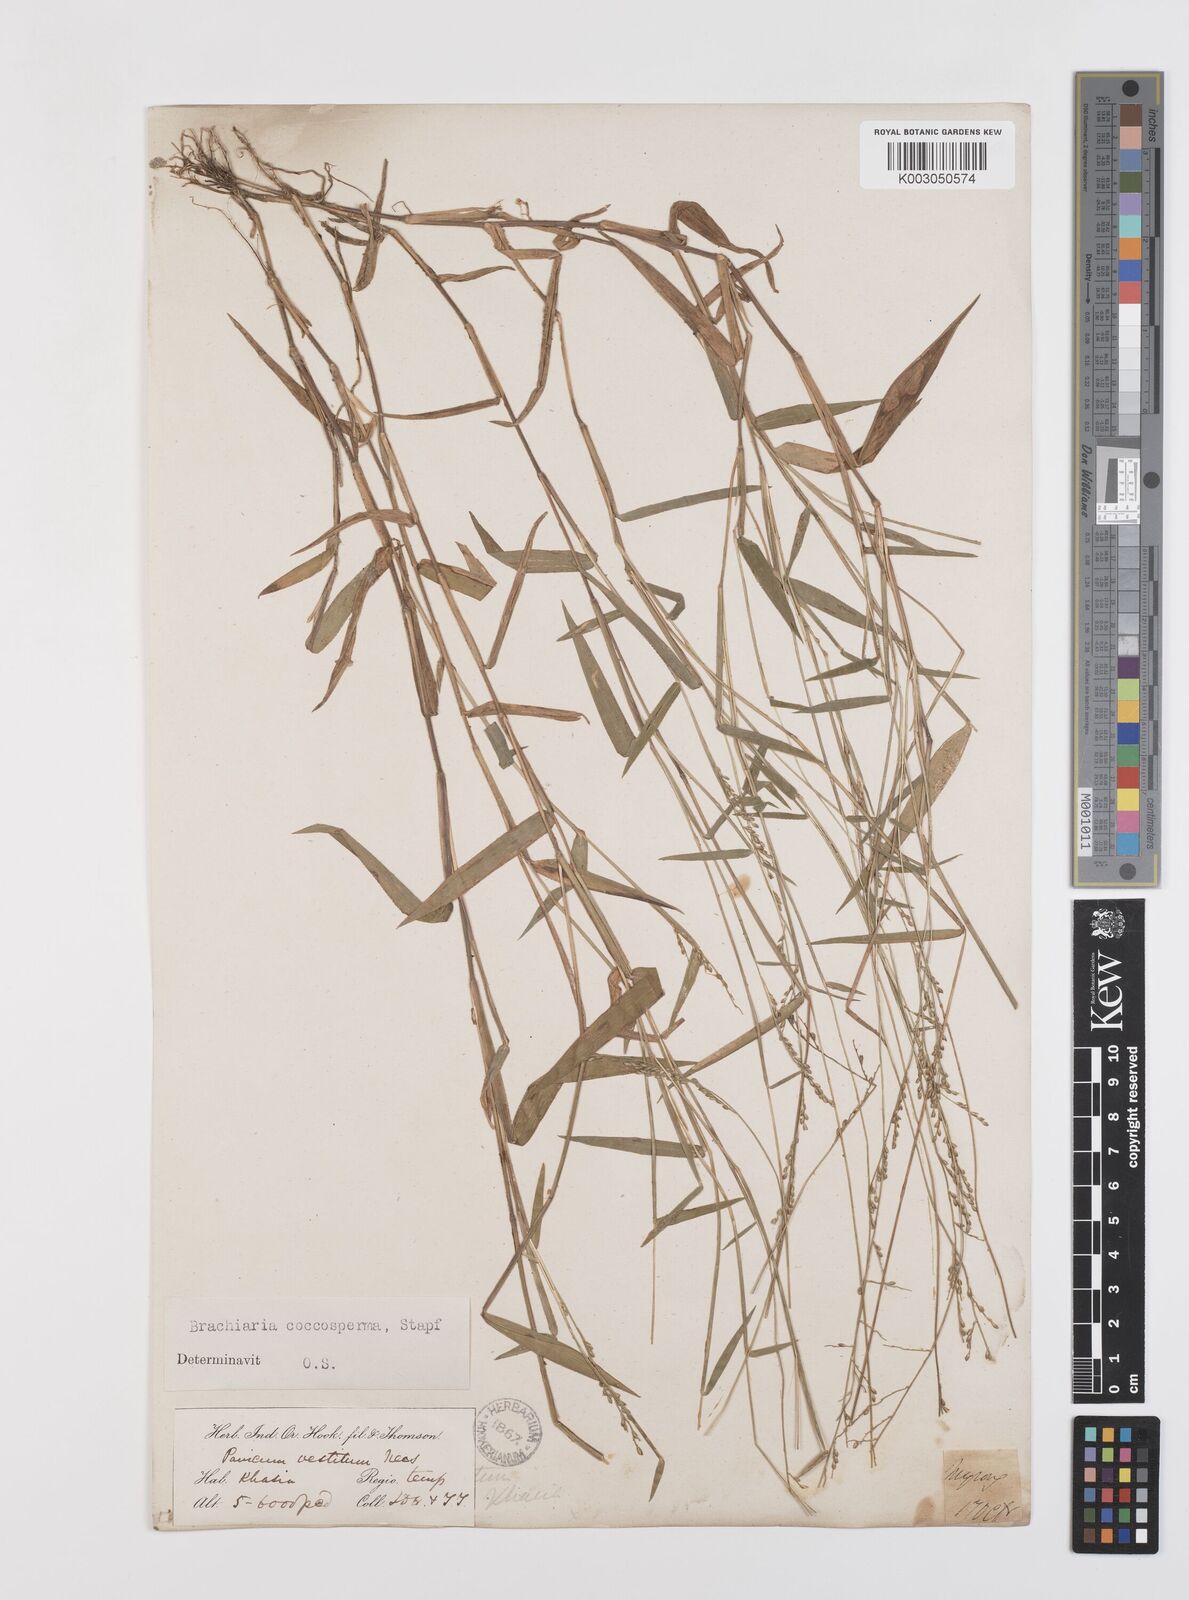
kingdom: Plantae
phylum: Tracheophyta
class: Liliopsida
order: Poales
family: Poaceae
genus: Urochloa
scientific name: Urochloa villosa
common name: Hairy signalgrass
